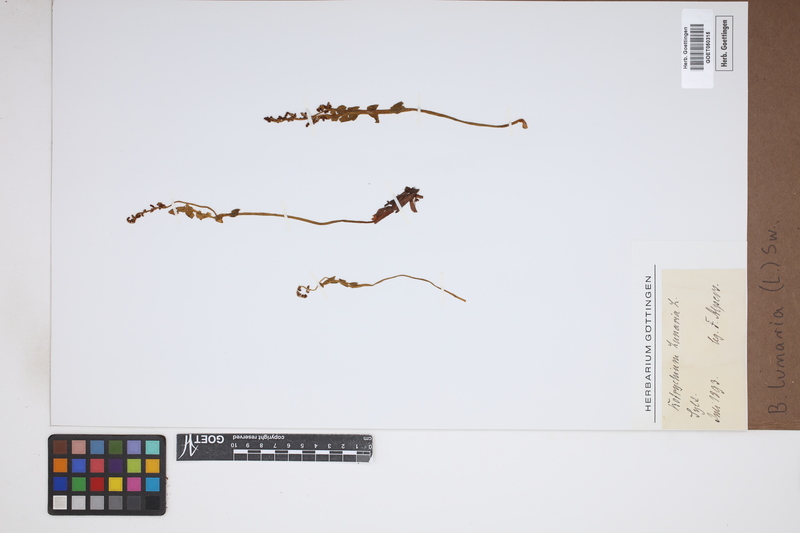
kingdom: Plantae
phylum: Tracheophyta
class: Polypodiopsida
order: Ophioglossales
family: Ophioglossaceae
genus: Botrychium
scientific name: Botrychium lunaria
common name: Moonwort
